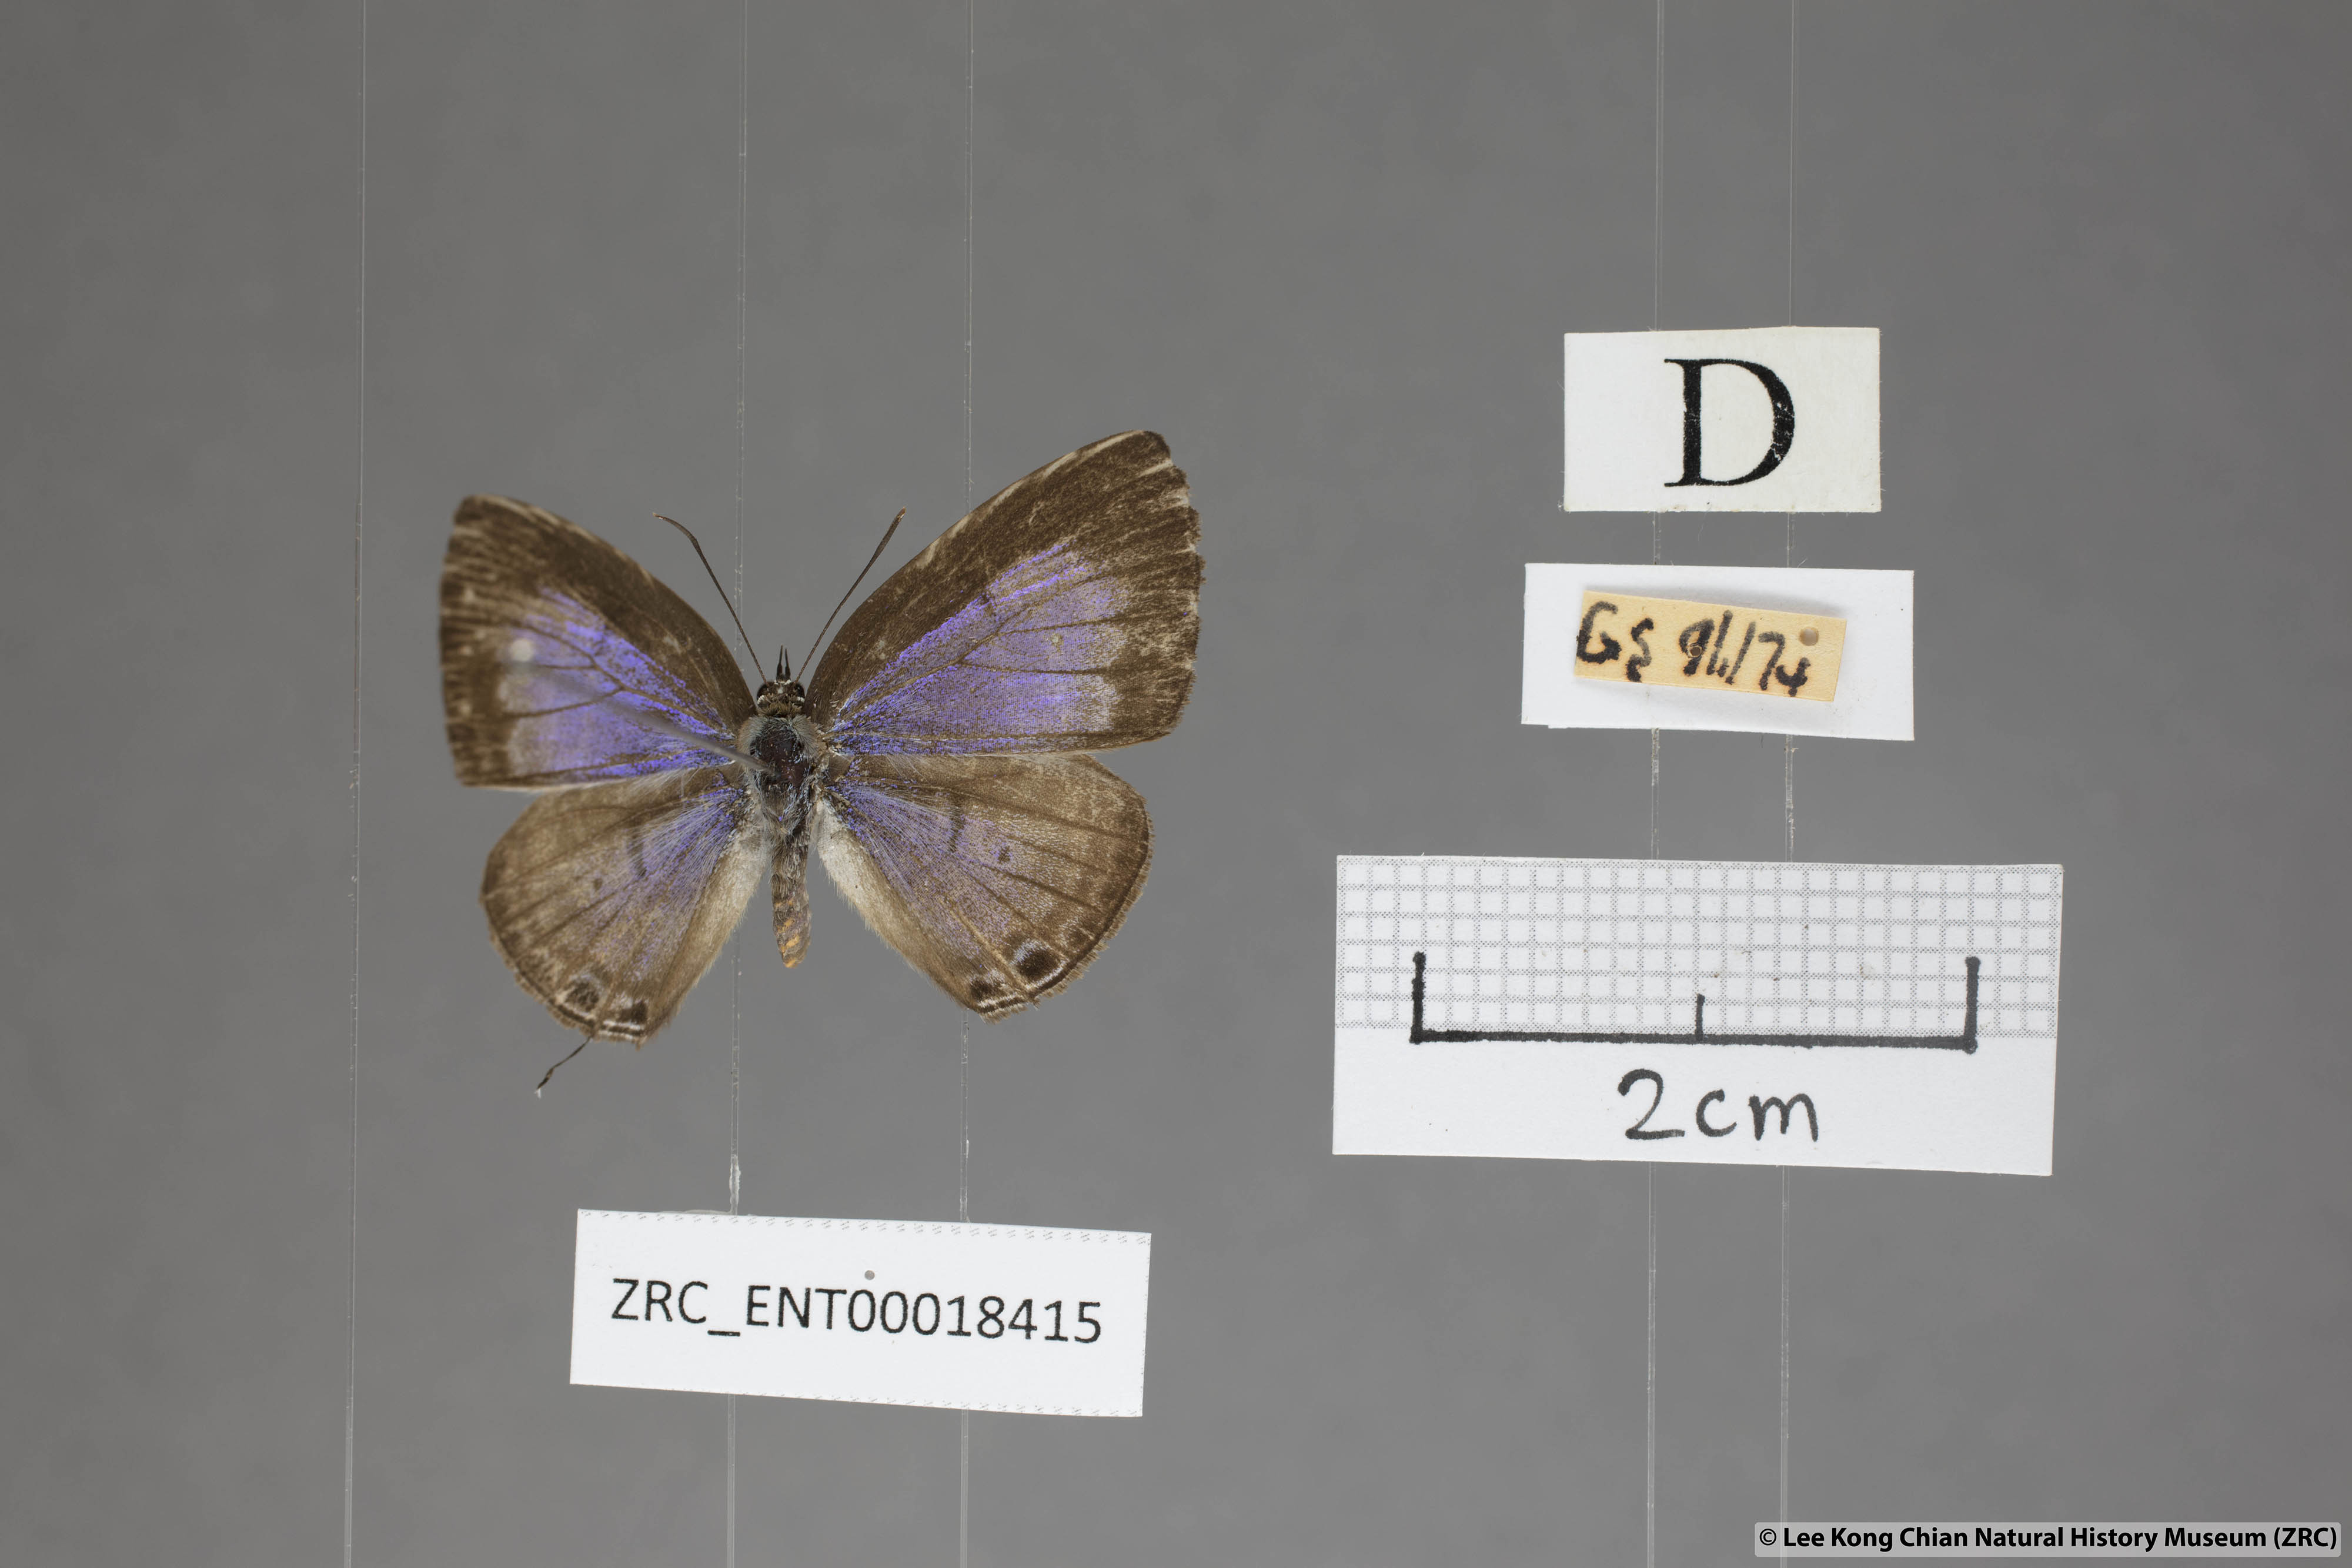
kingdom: Animalia
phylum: Arthropoda
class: Insecta
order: Lepidoptera
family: Lycaenidae
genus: Nacaduba
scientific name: Nacaduba pactolus
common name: Large fourline blue
